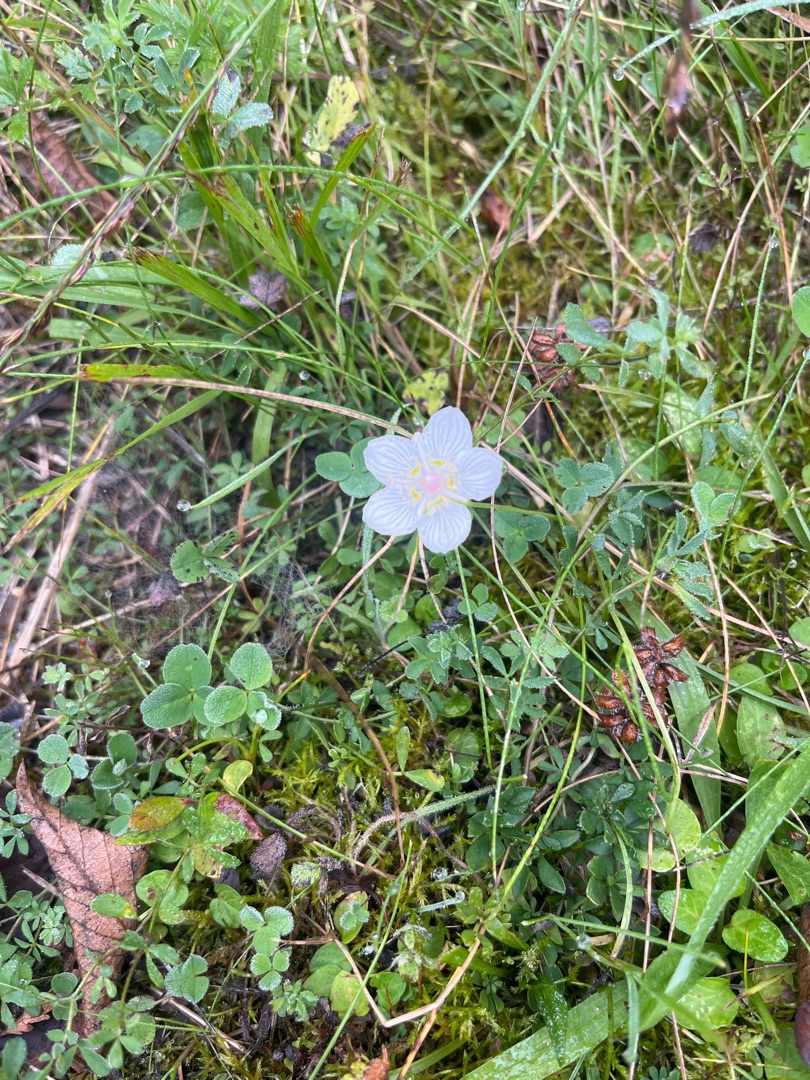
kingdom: Plantae
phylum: Tracheophyta
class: Magnoliopsida
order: Celastrales
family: Parnassiaceae
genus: Parnassia
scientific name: Parnassia palustris
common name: Leverurt
